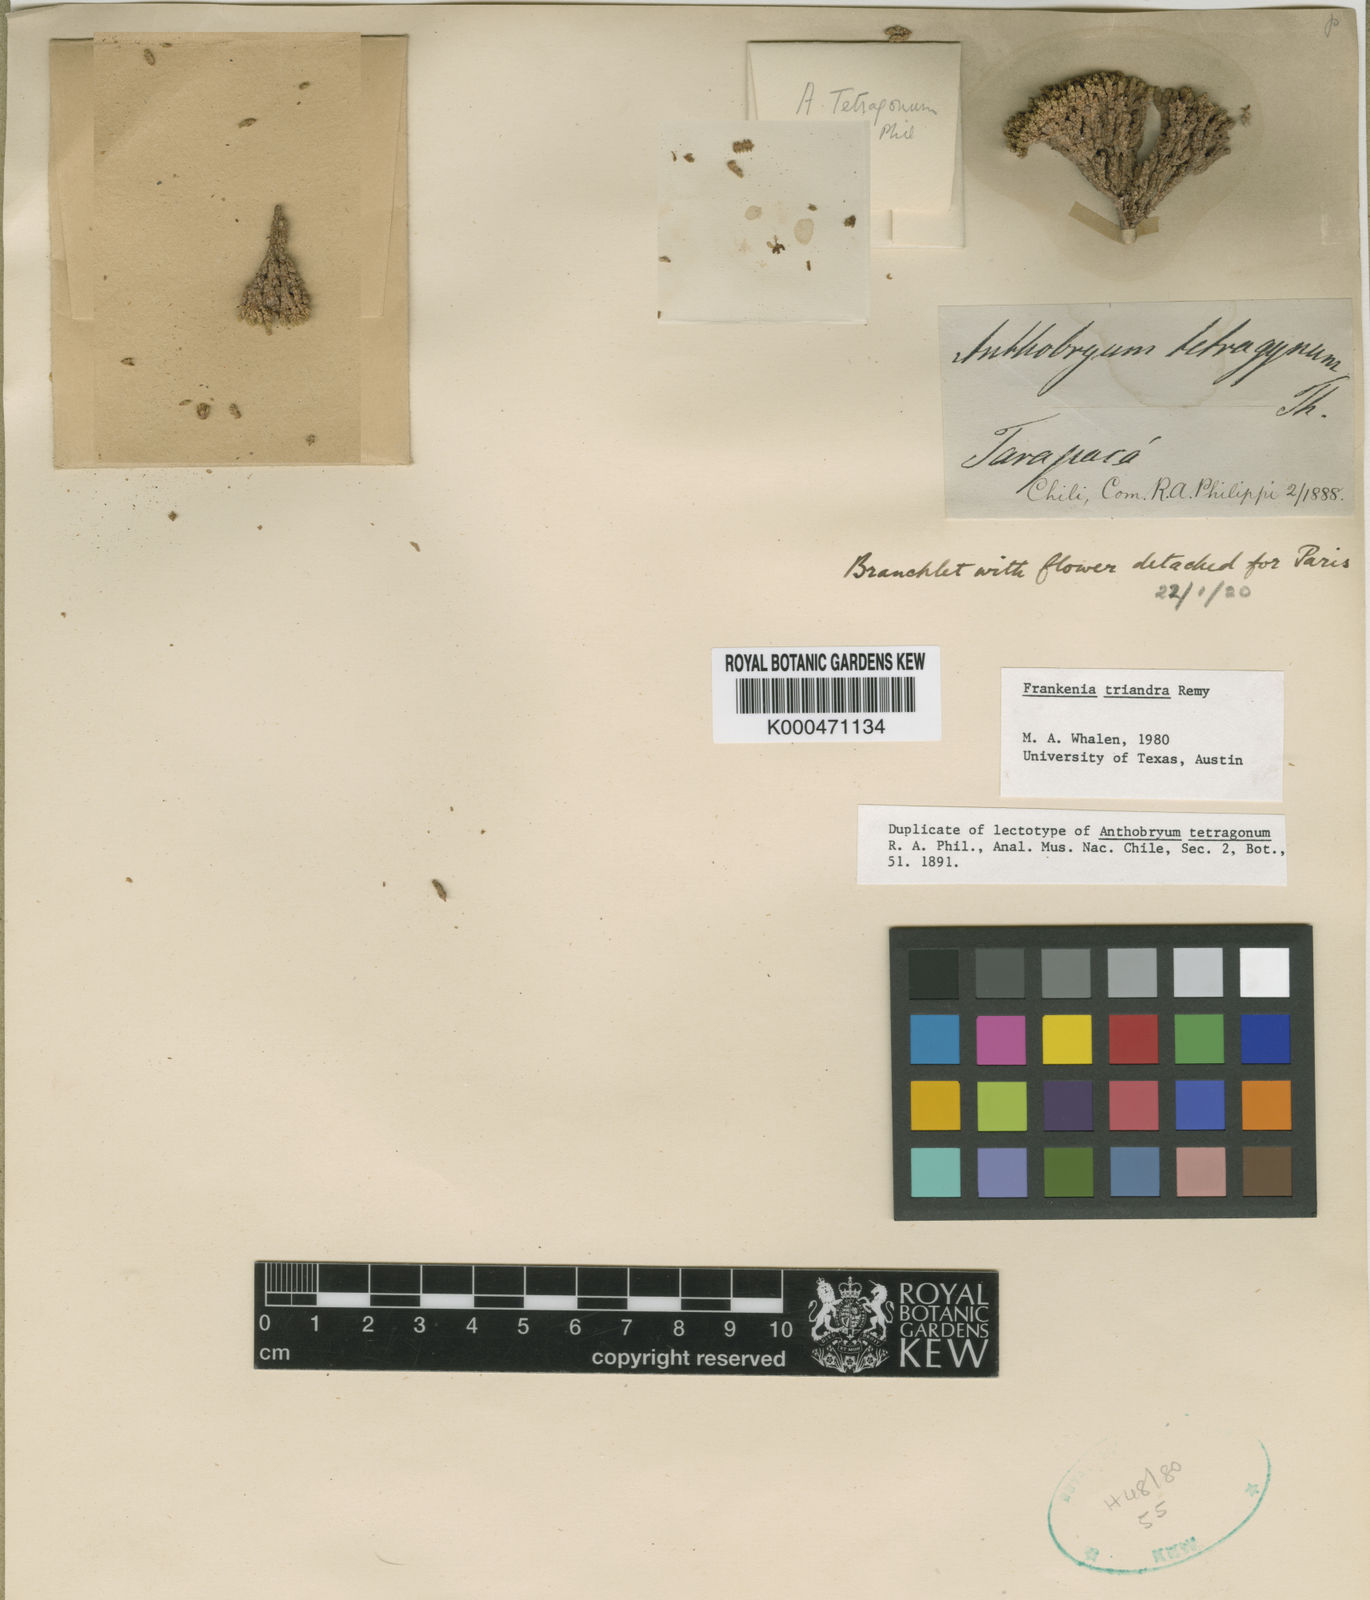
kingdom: Plantae
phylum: Tracheophyta
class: Magnoliopsida
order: Caryophyllales
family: Frankeniaceae
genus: Frankenia
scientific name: Frankenia
